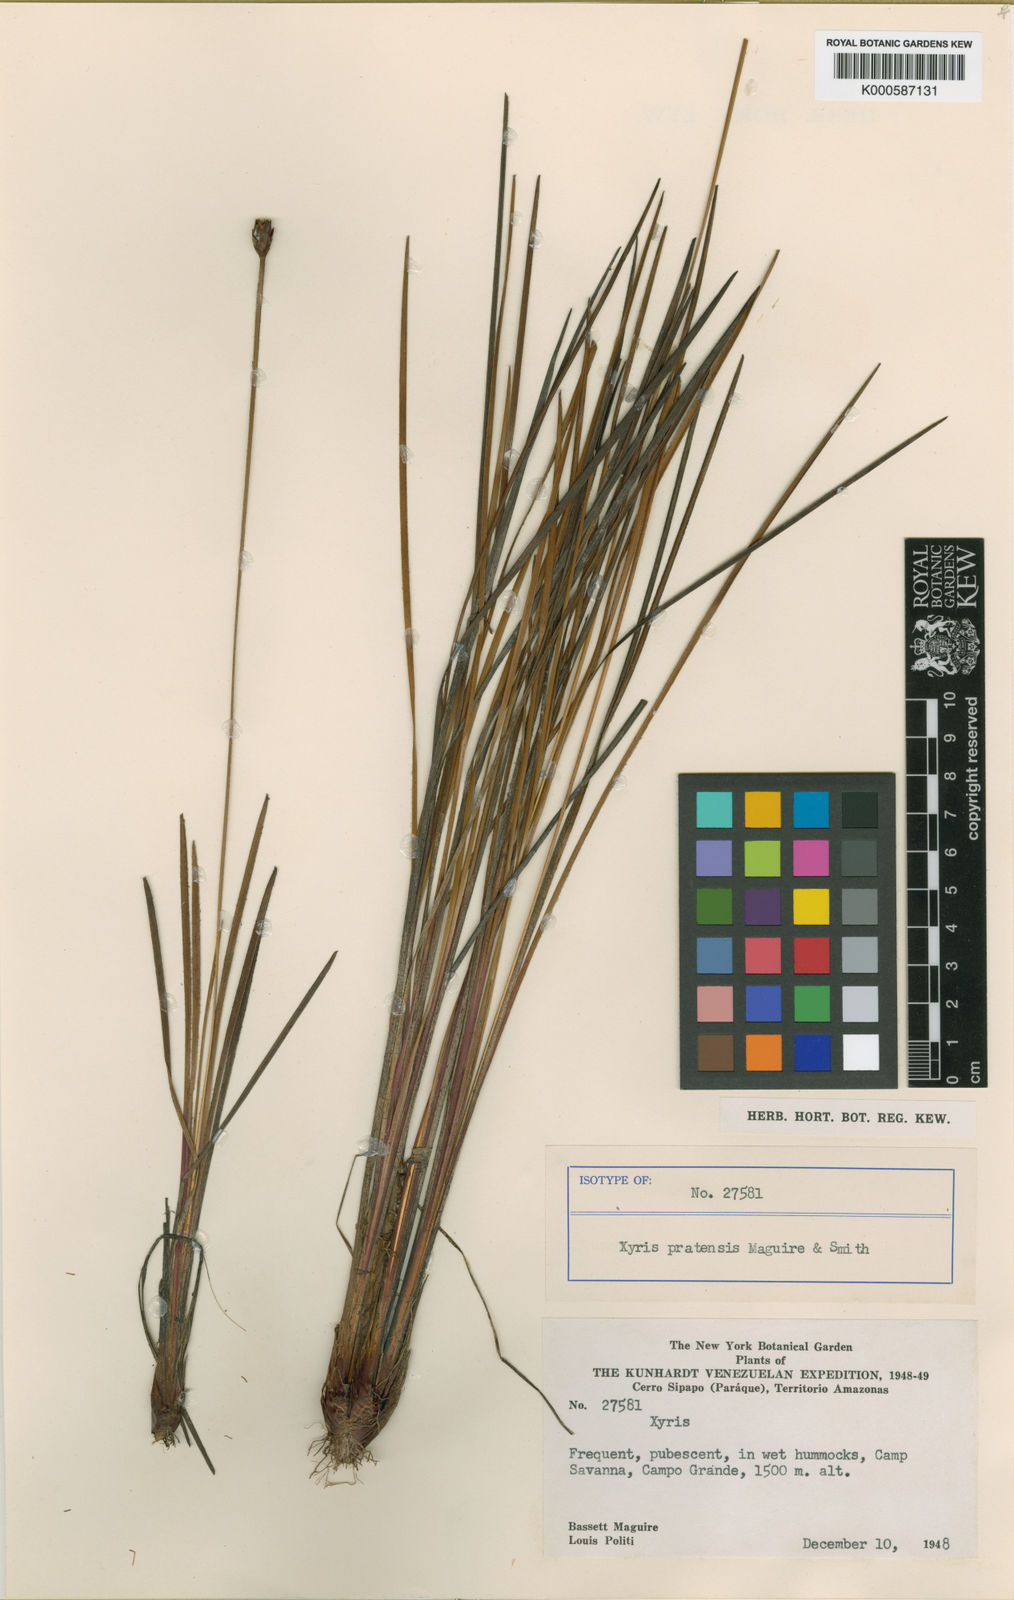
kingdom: Plantae
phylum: Tracheophyta
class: Liliopsida
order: Poales
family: Xyridaceae
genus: Xyris
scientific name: Xyris pratensis
